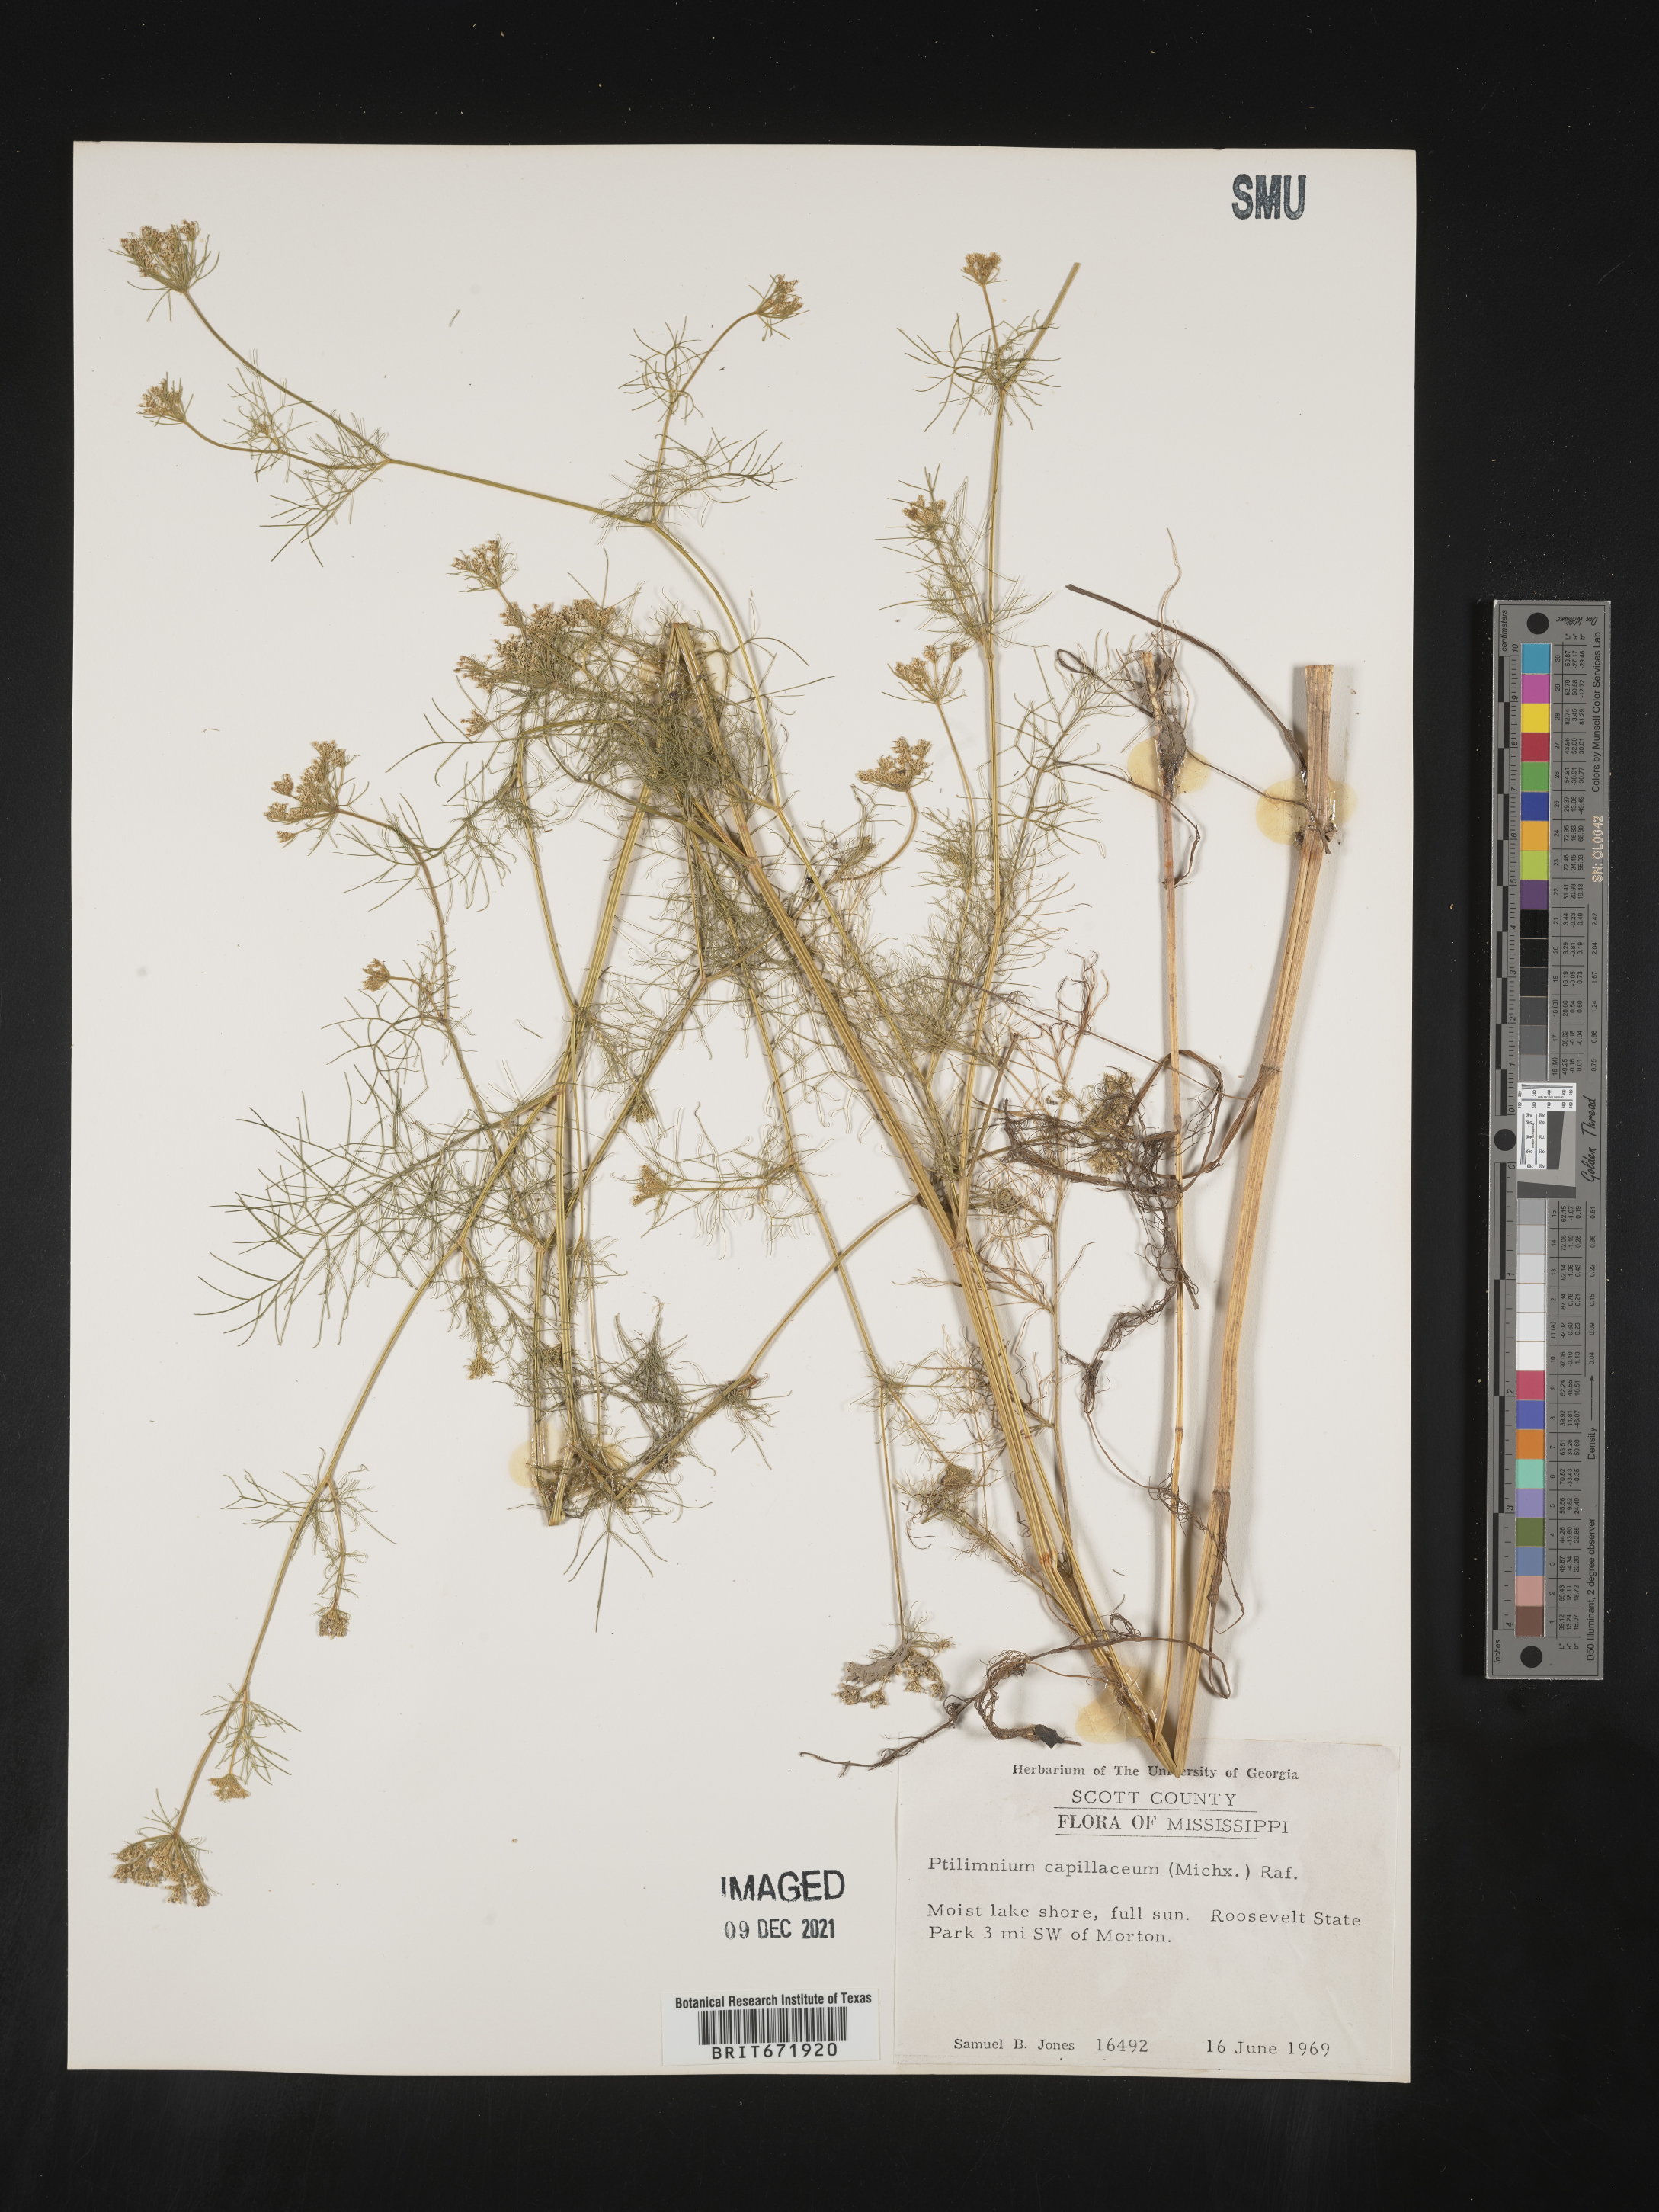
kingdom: Plantae
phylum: Tracheophyta
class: Magnoliopsida
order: Apiales
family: Apiaceae
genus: Ptilimnium
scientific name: Ptilimnium capillaceum
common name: Herbwilliam
